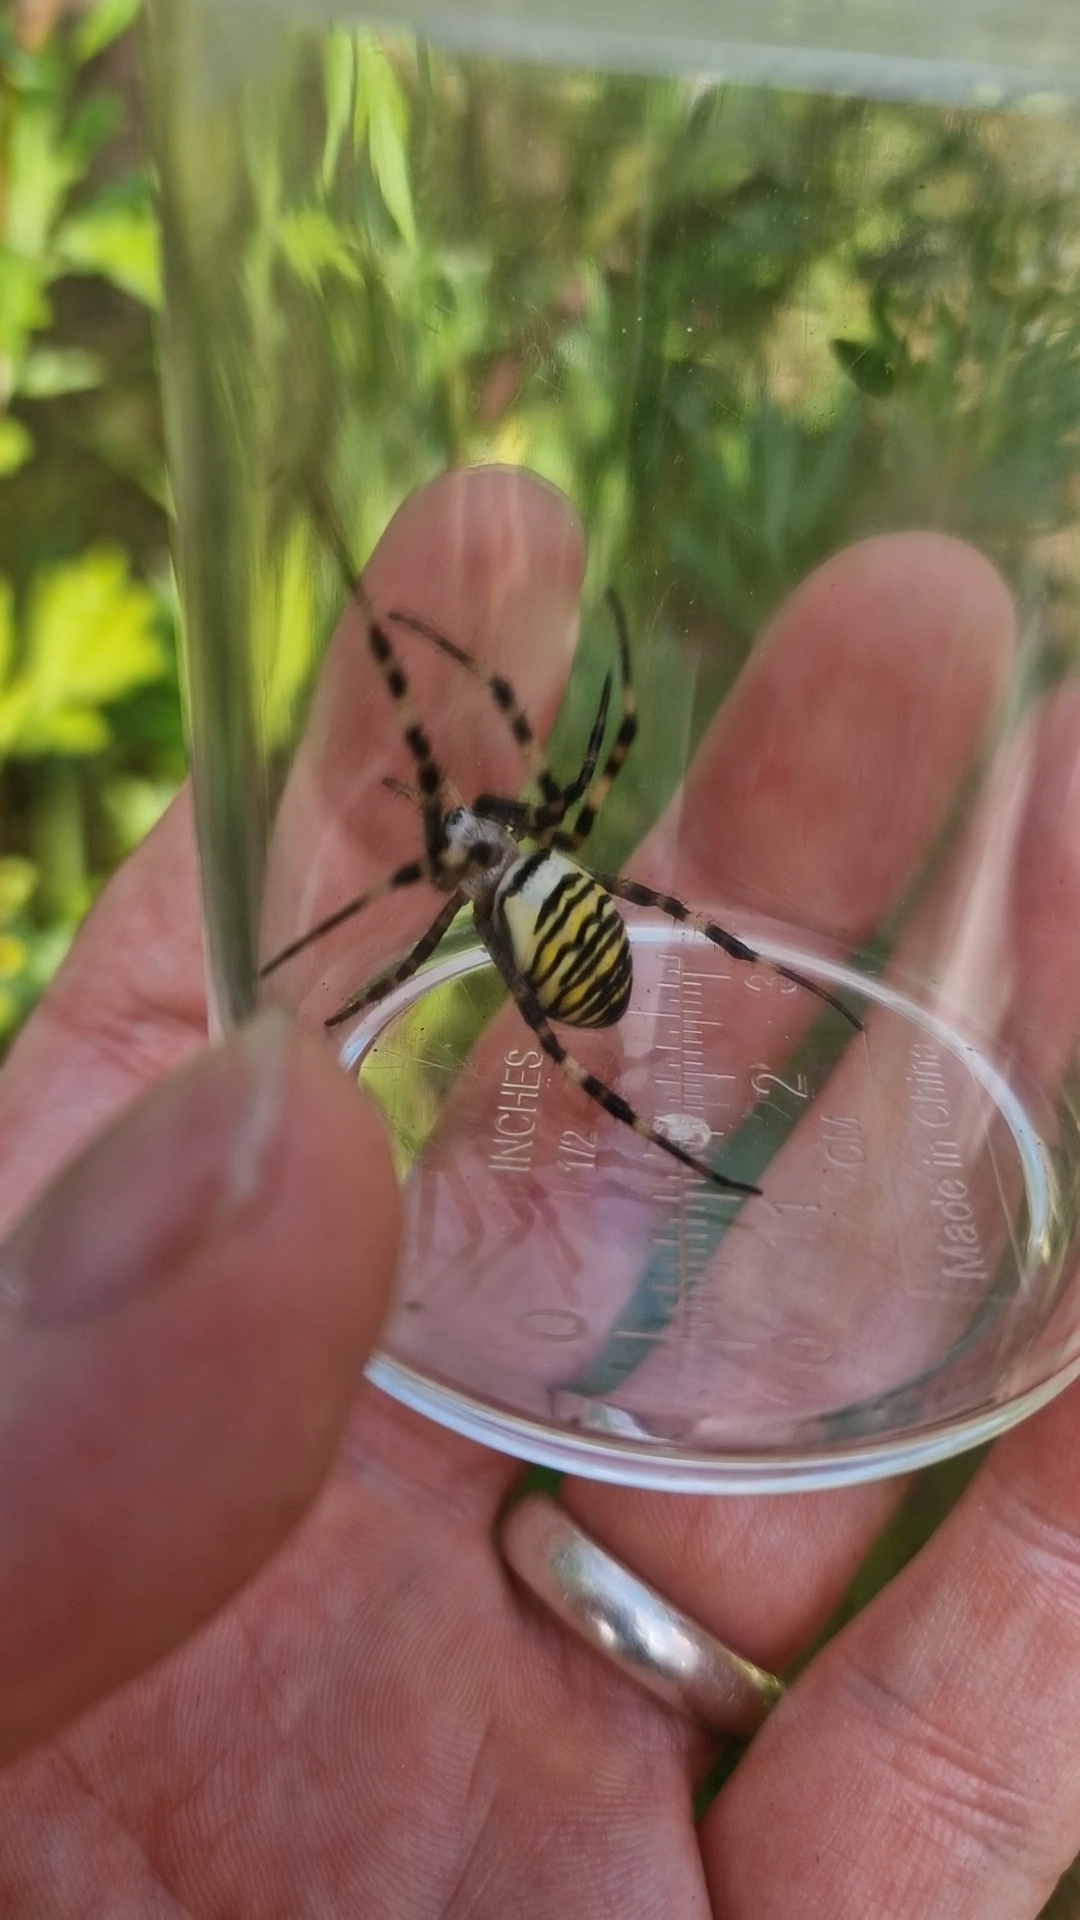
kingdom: Animalia
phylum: Arthropoda
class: Arachnida
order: Araneae
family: Araneidae
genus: Argiope
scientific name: Argiope bruennichi
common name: Hvepseedderkop
